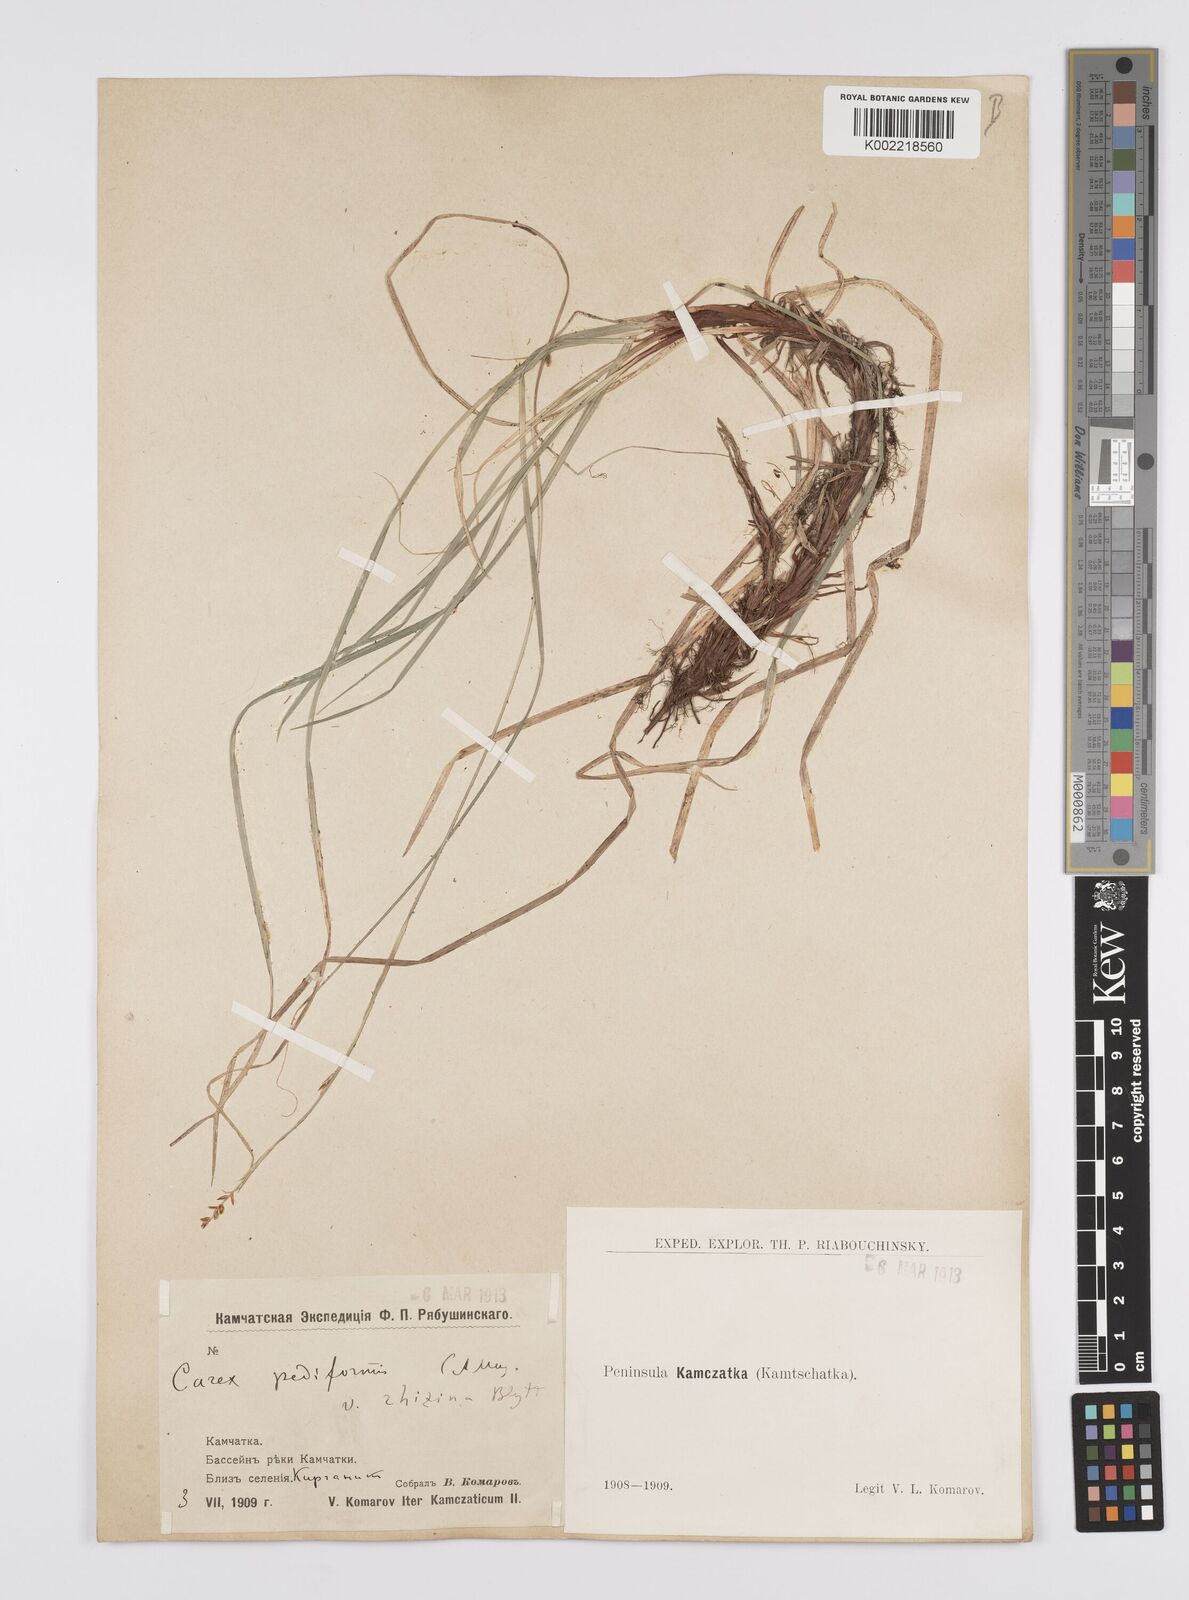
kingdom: Plantae
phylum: Tracheophyta
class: Liliopsida
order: Poales
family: Cyperaceae
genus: Carex
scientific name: Carex pediformis
